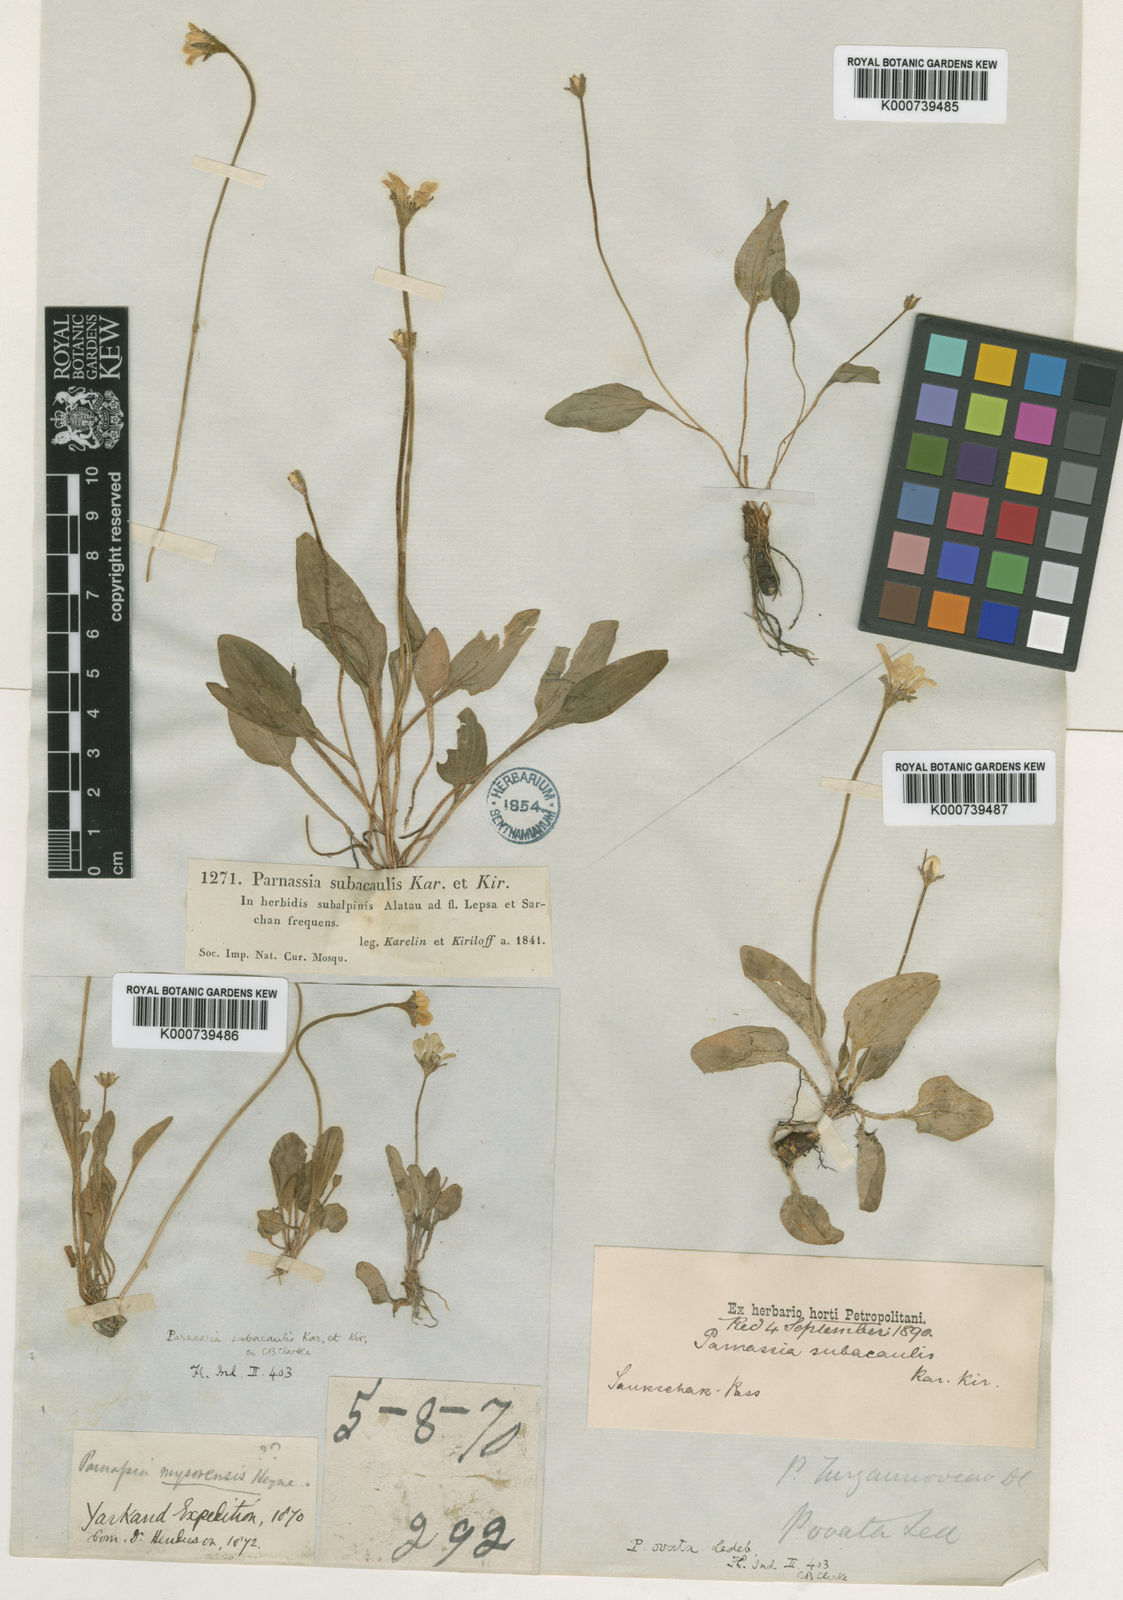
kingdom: Plantae
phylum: Tracheophyta
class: Magnoliopsida
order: Celastrales
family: Parnassiaceae
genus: Parnassia
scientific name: Parnassia laxmannii
